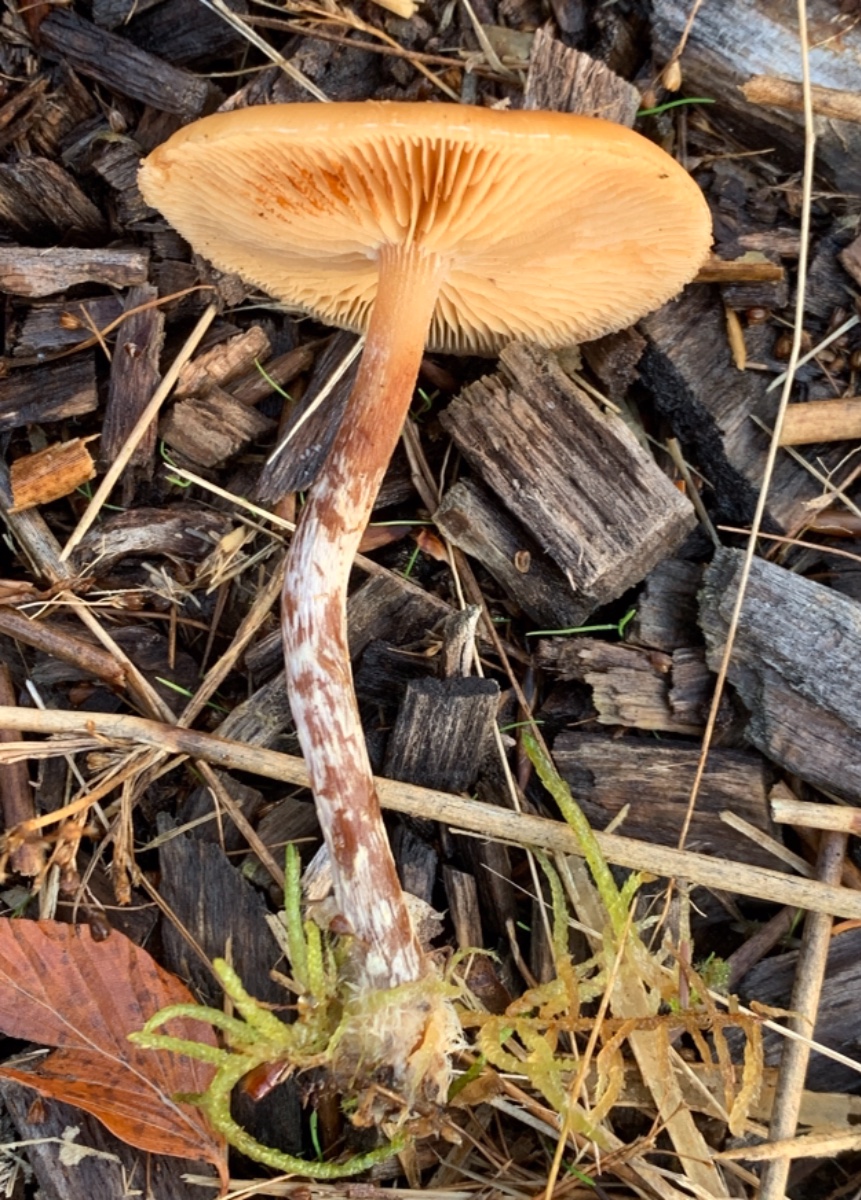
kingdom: Fungi
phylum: Basidiomycota
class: Agaricomycetes
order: Agaricales
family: Hymenogastraceae
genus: Galerina
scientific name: Galerina sideroides
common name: træflis-hjelmhat
